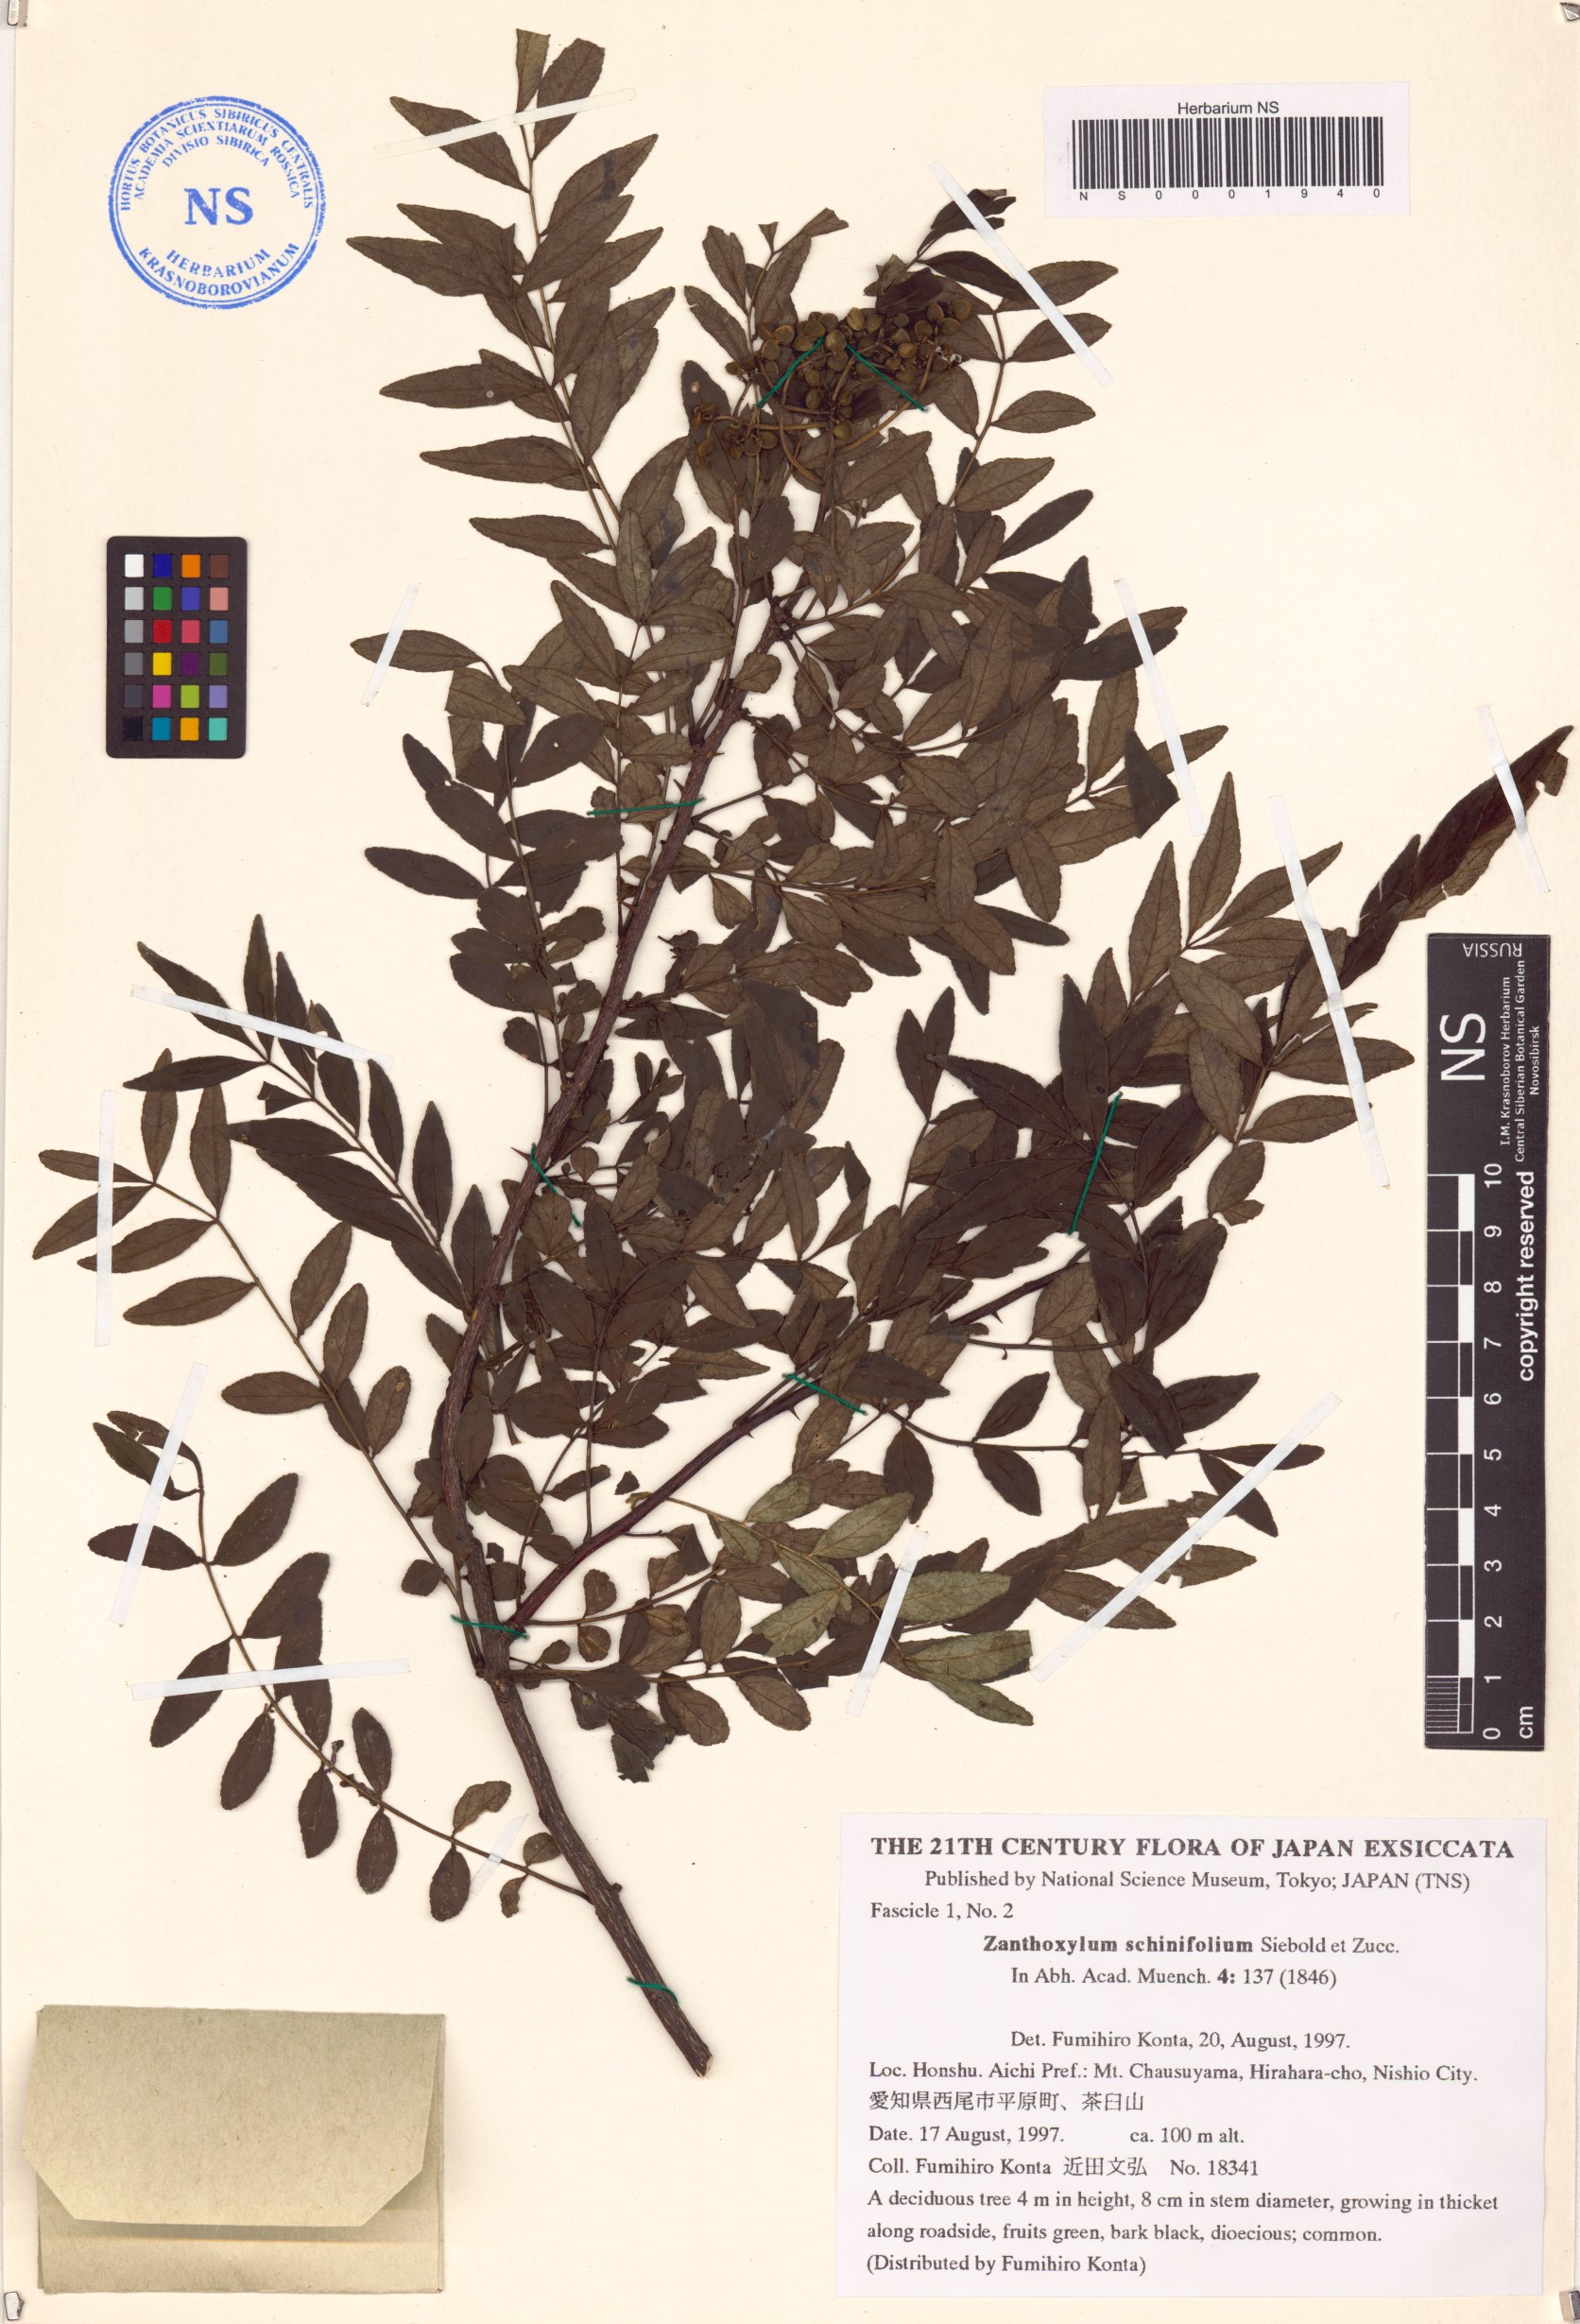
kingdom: Plantae
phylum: Tracheophyta
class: Magnoliopsida
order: Sapindales
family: Rutaceae
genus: Zanthoxylum
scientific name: Zanthoxylum schinifolium
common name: Sichuan-pepper
